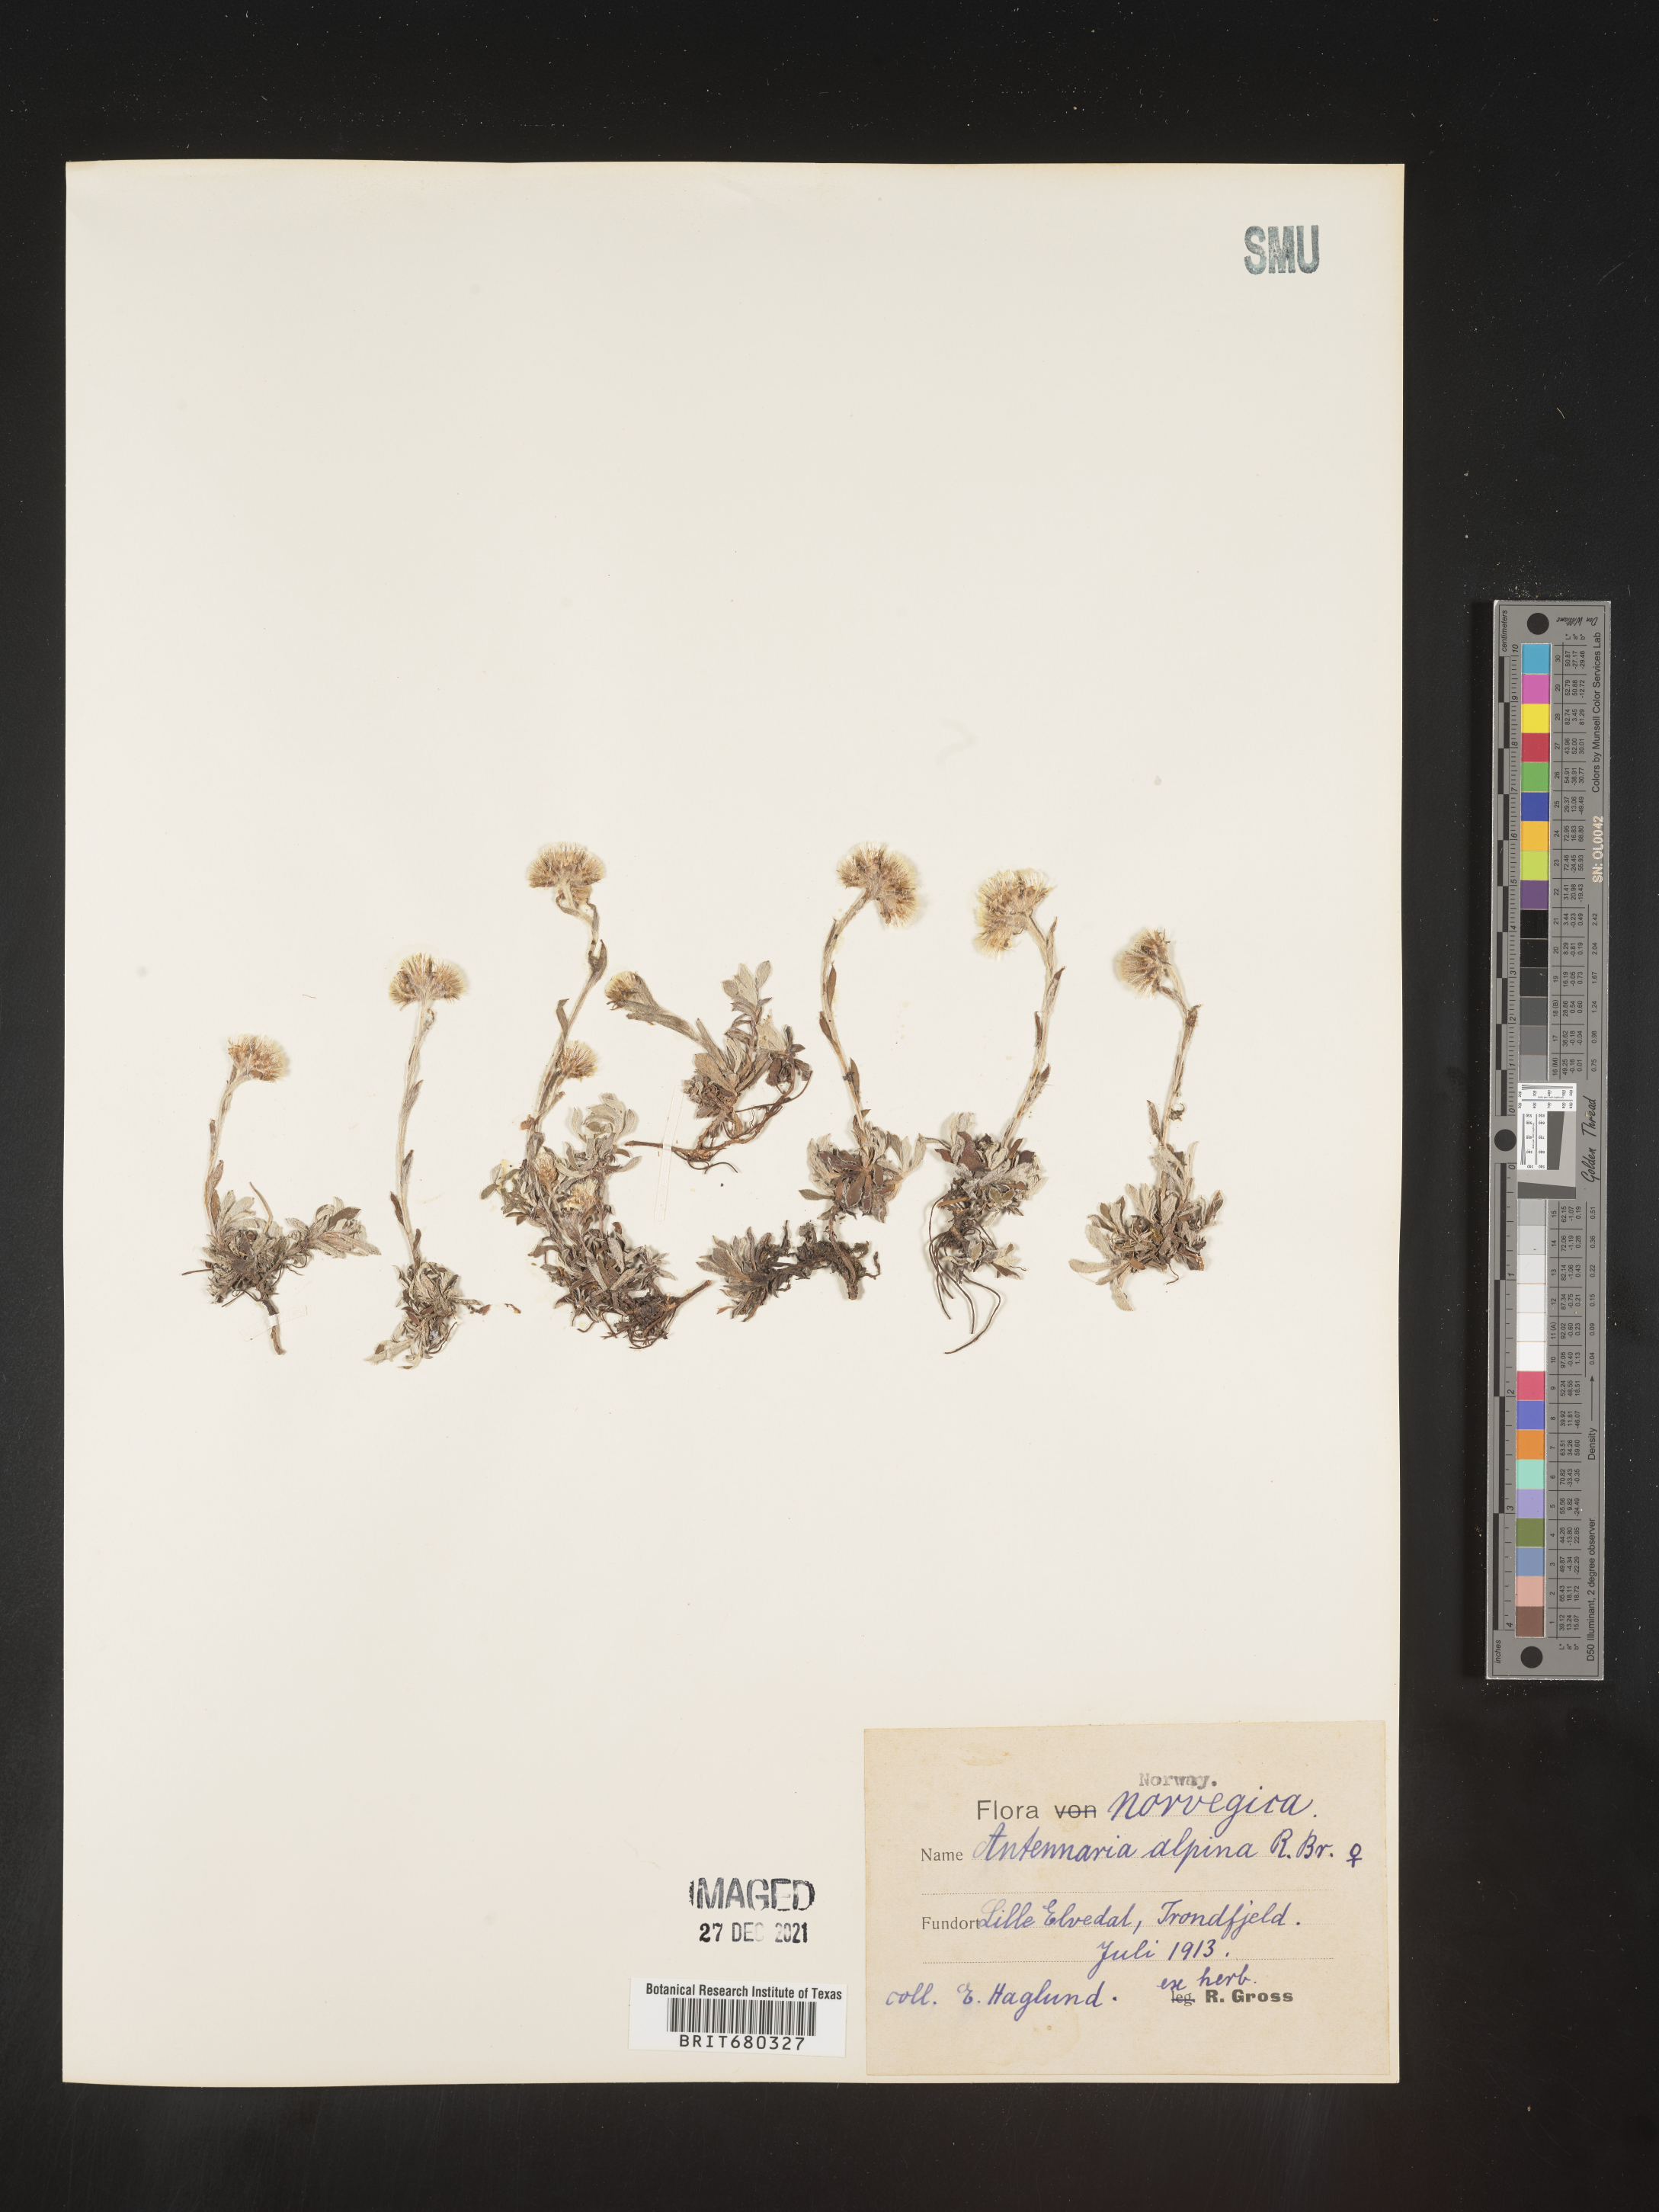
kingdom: Plantae
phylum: Tracheophyta
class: Magnoliopsida
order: Asterales
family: Asteraceae
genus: Antennaria
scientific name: Antennaria
